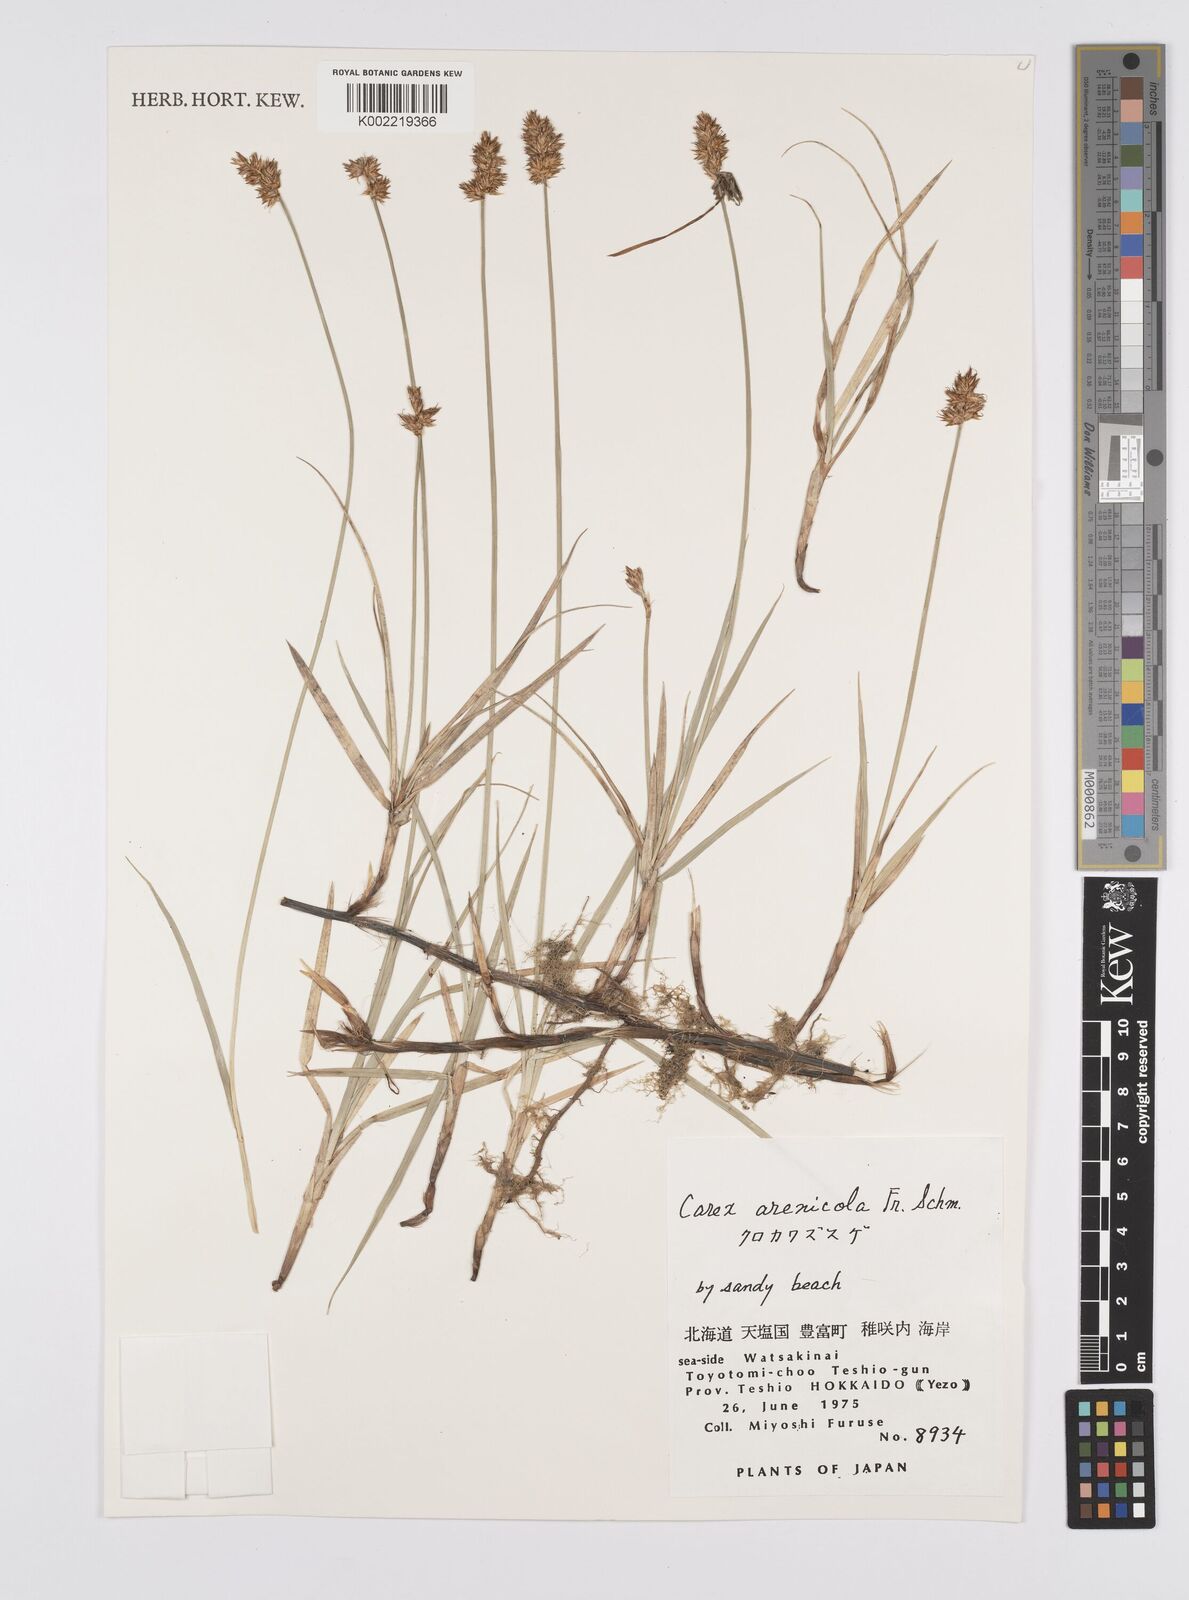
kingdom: Plantae
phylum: Tracheophyta
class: Liliopsida
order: Poales
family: Cyperaceae
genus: Carex
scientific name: Carex arenicola
